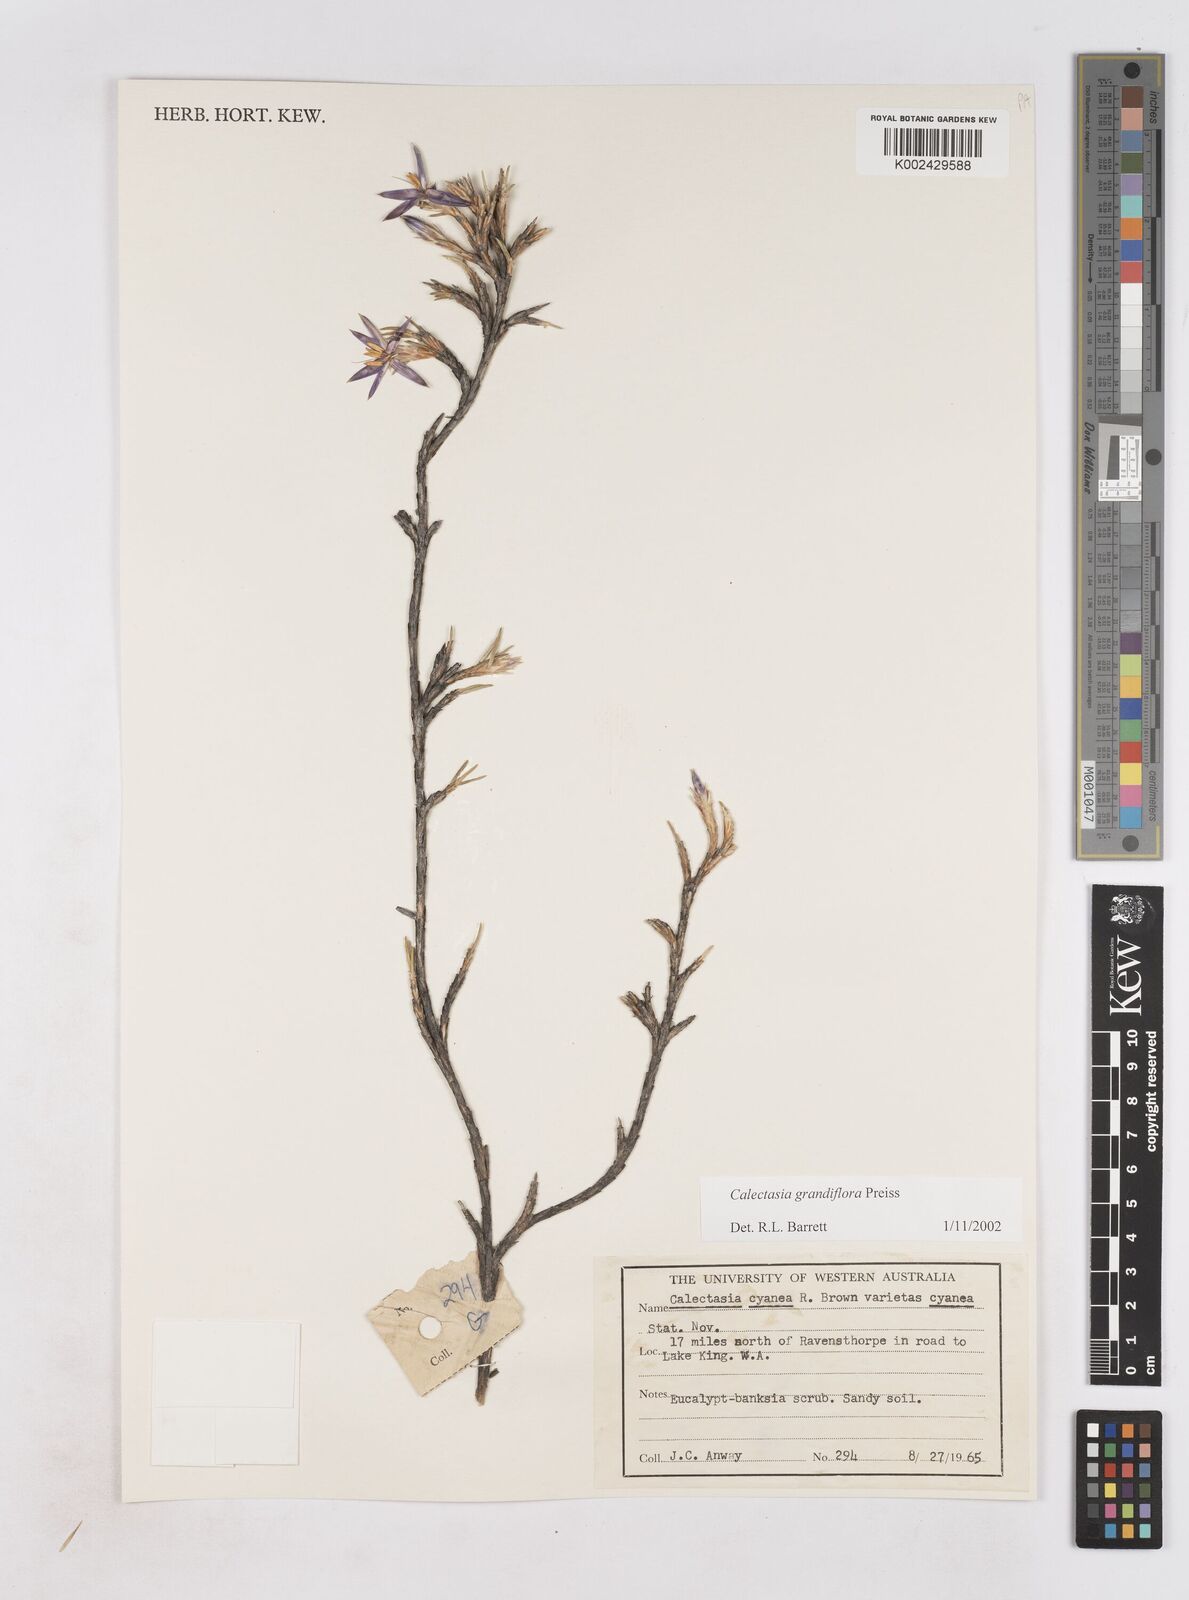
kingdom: Plantae
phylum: Tracheophyta
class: Liliopsida
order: Arecales
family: Dasypogonaceae
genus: Calectasia
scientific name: Calectasia grandiflora
